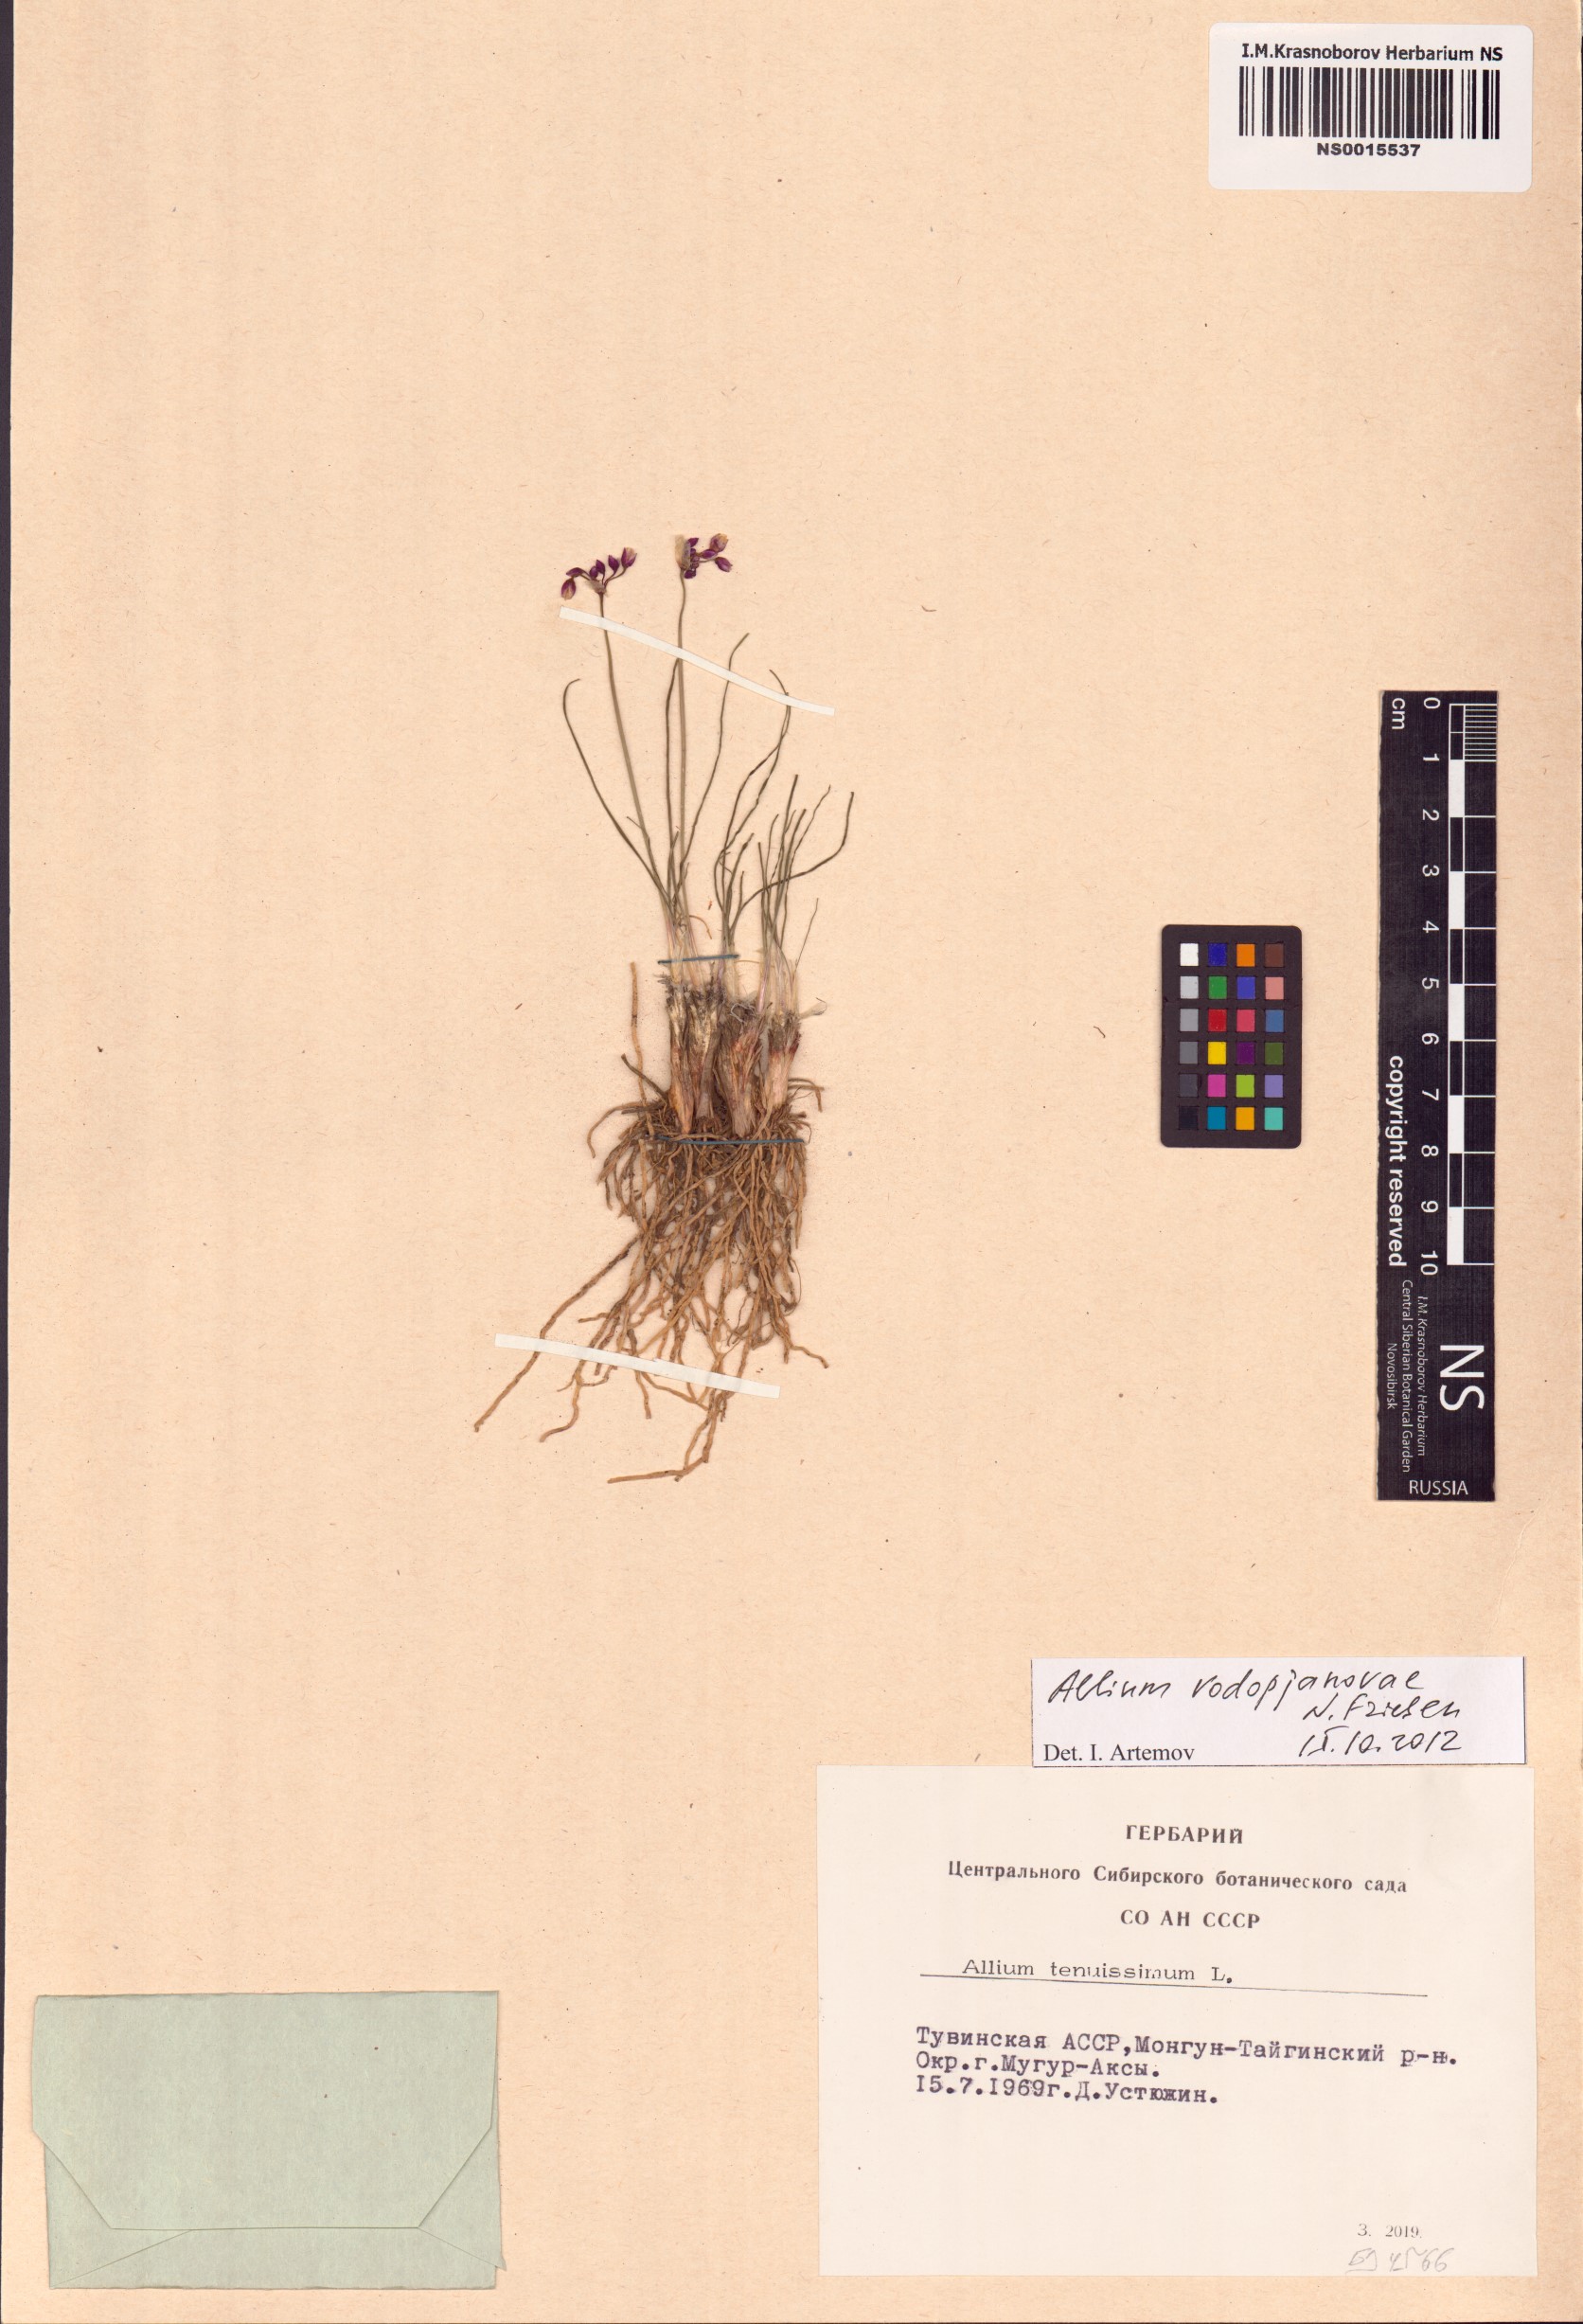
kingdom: Plantae
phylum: Tracheophyta
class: Liliopsida
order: Asparagales
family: Amaryllidaceae
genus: Allium
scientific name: Allium vodopjanovae
